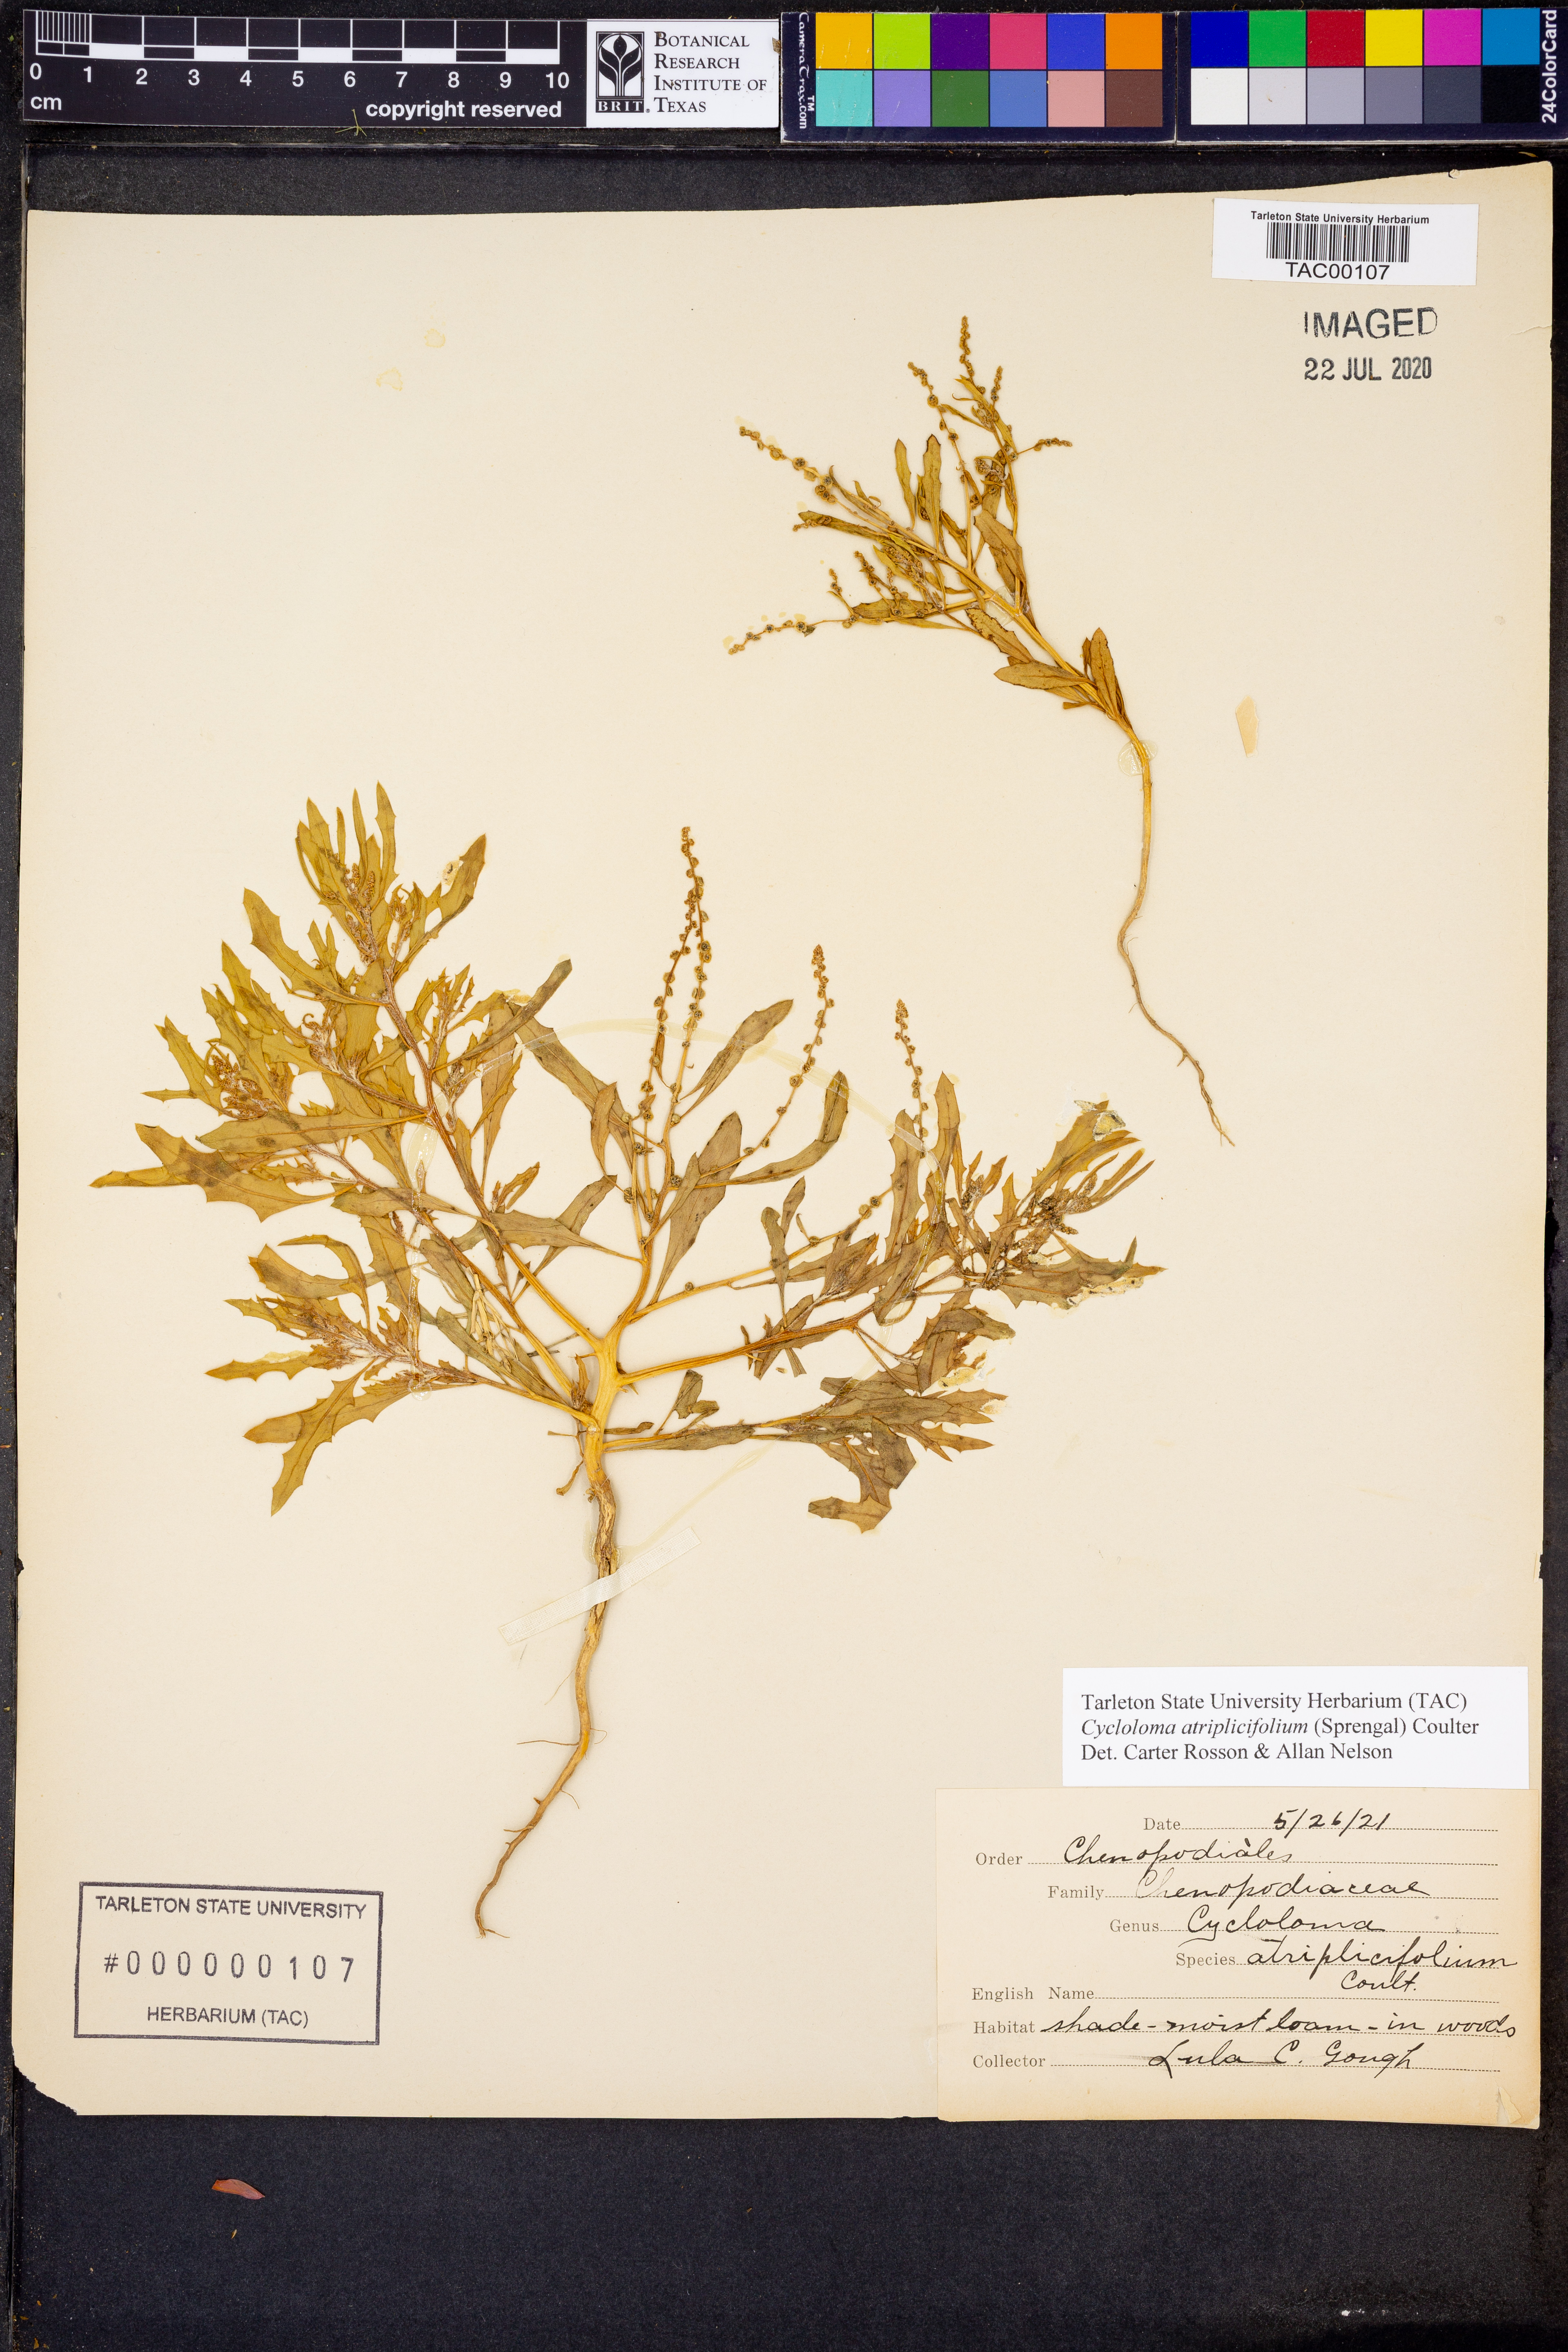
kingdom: Plantae
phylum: Tracheophyta
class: Magnoliopsida
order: Caryophyllales
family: Amaranthaceae
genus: Dysphania
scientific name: Dysphania atriplicifolia
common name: Plains tumbleweed
